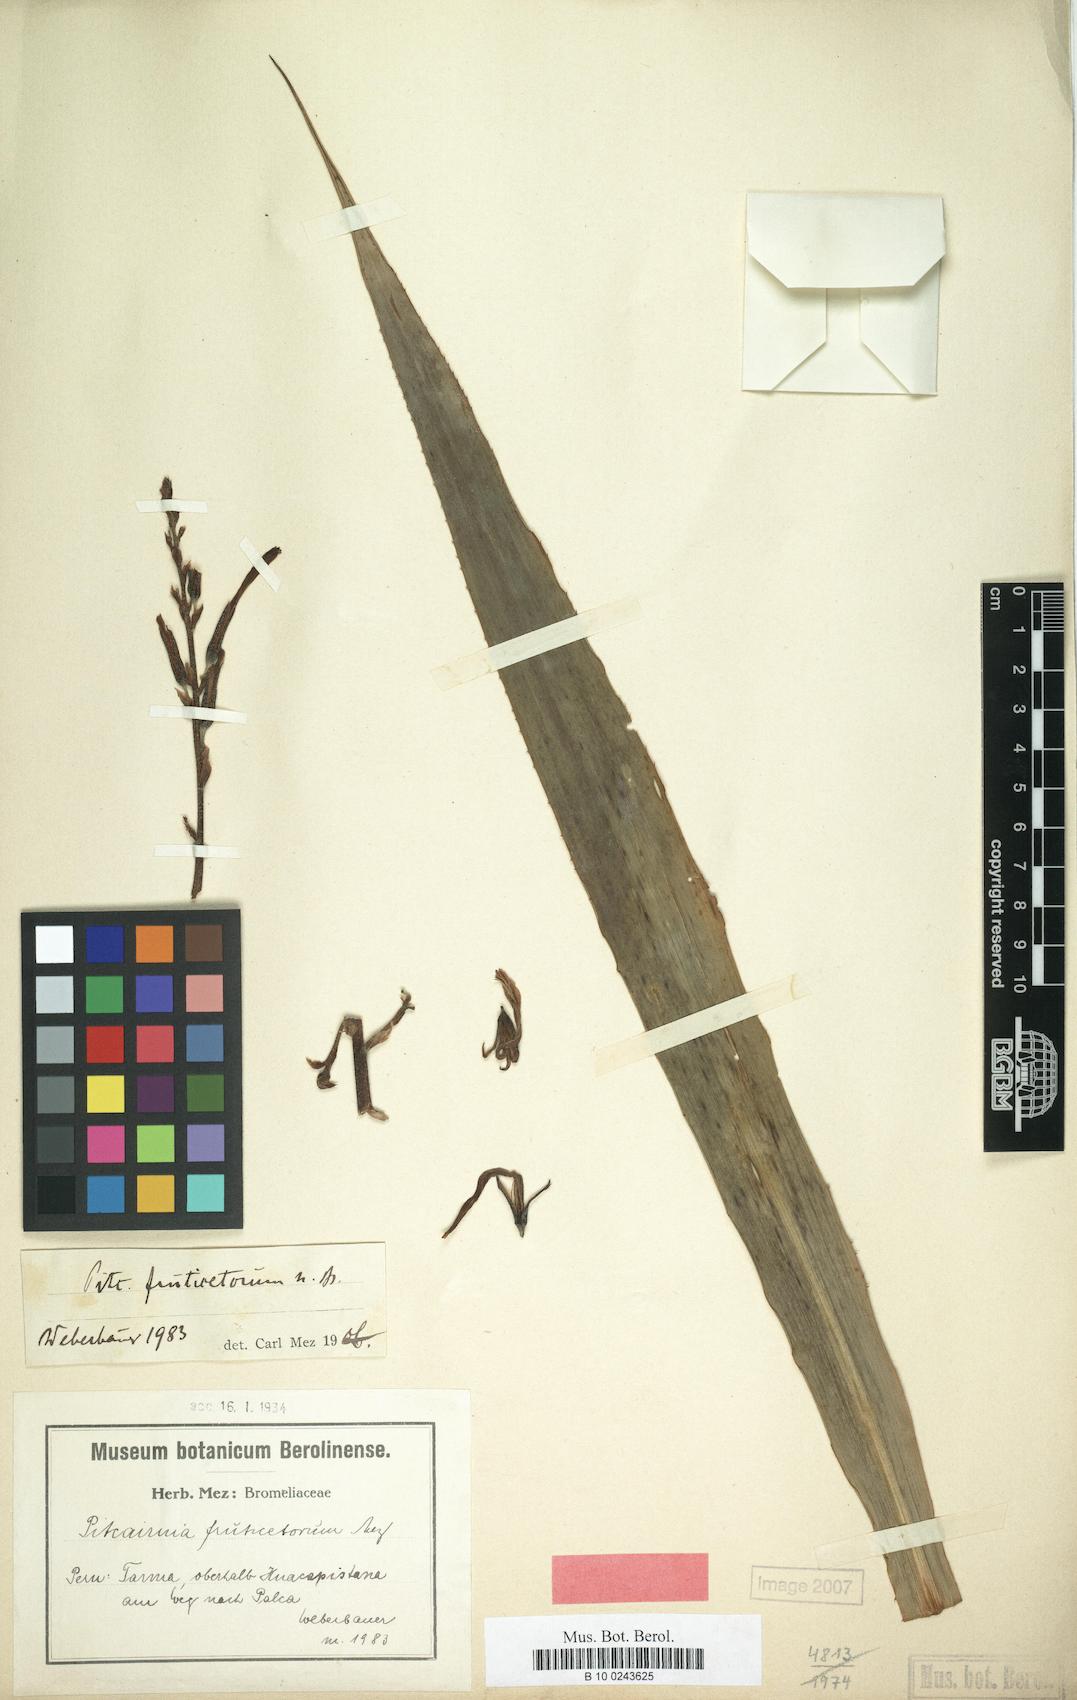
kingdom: Plantae
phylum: Tracheophyta
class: Liliopsida
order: Poales
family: Bromeliaceae
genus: Pitcairnia
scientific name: Pitcairnia paniculata
